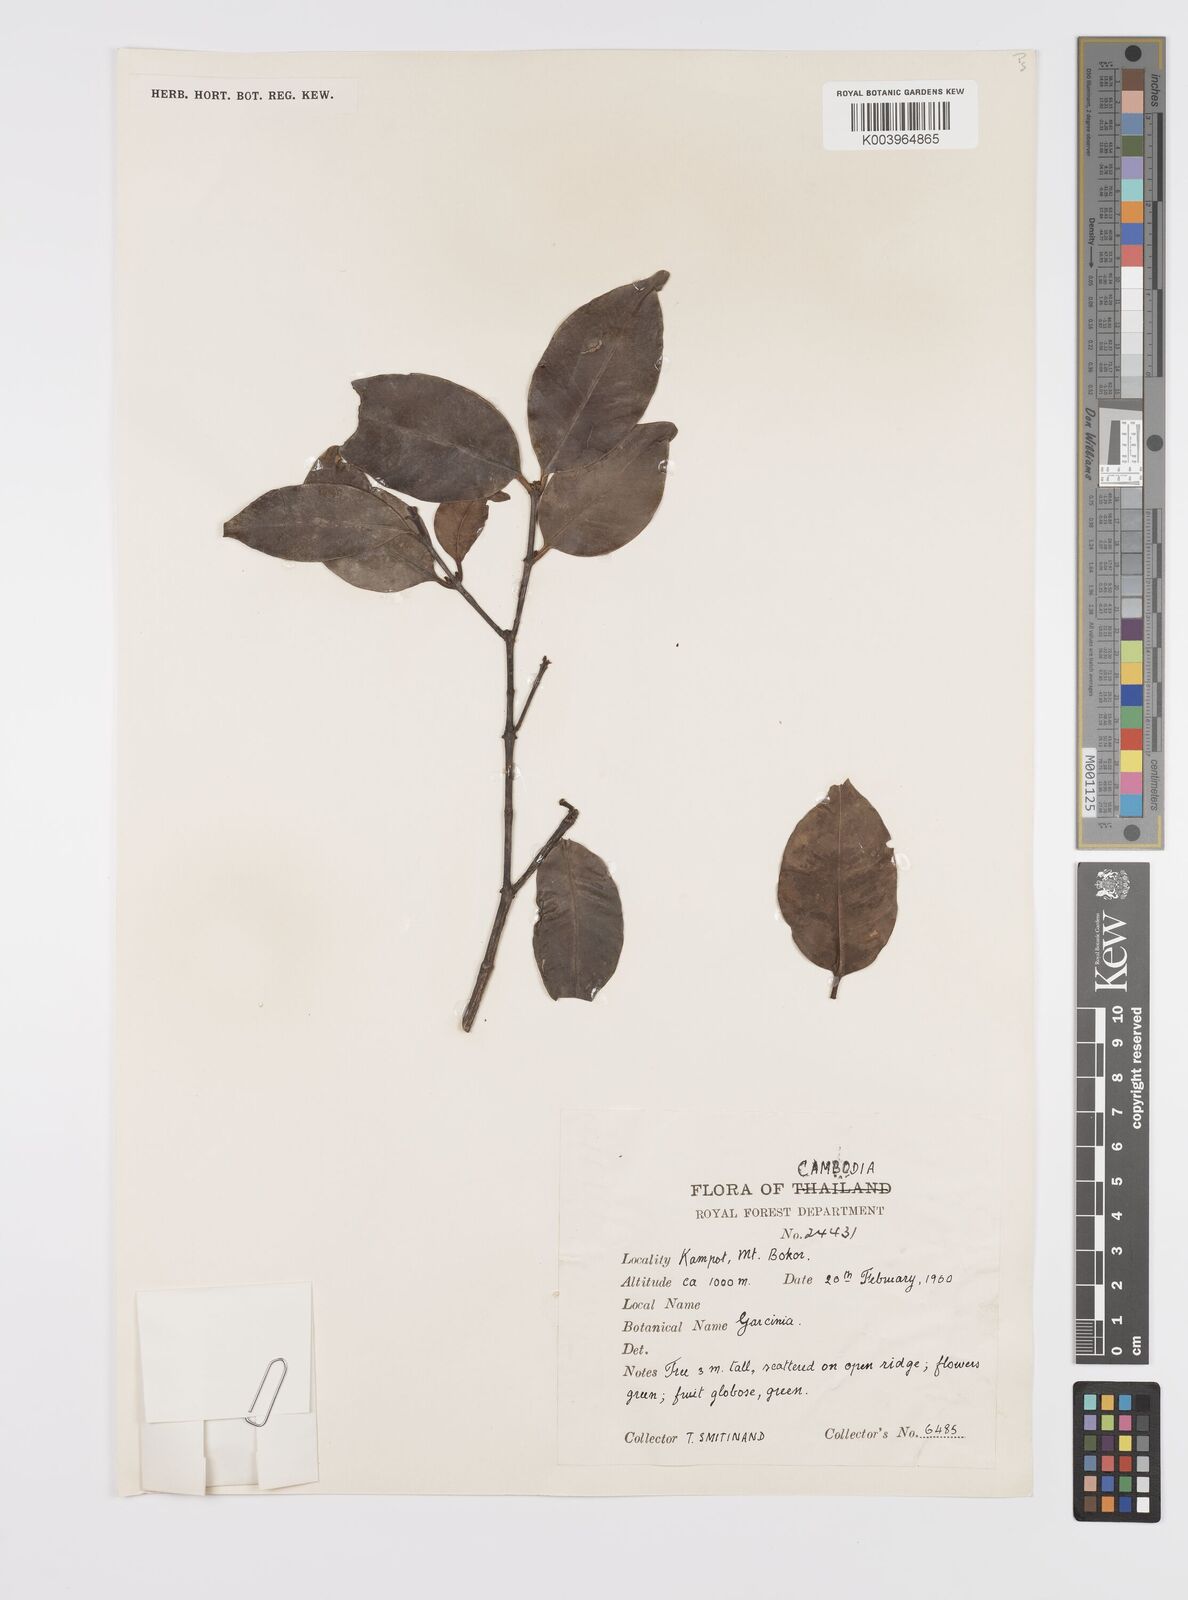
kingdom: Plantae
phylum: Tracheophyta
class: Magnoliopsida
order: Malpighiales
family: Clusiaceae
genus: Garcinia
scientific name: Garcinia
